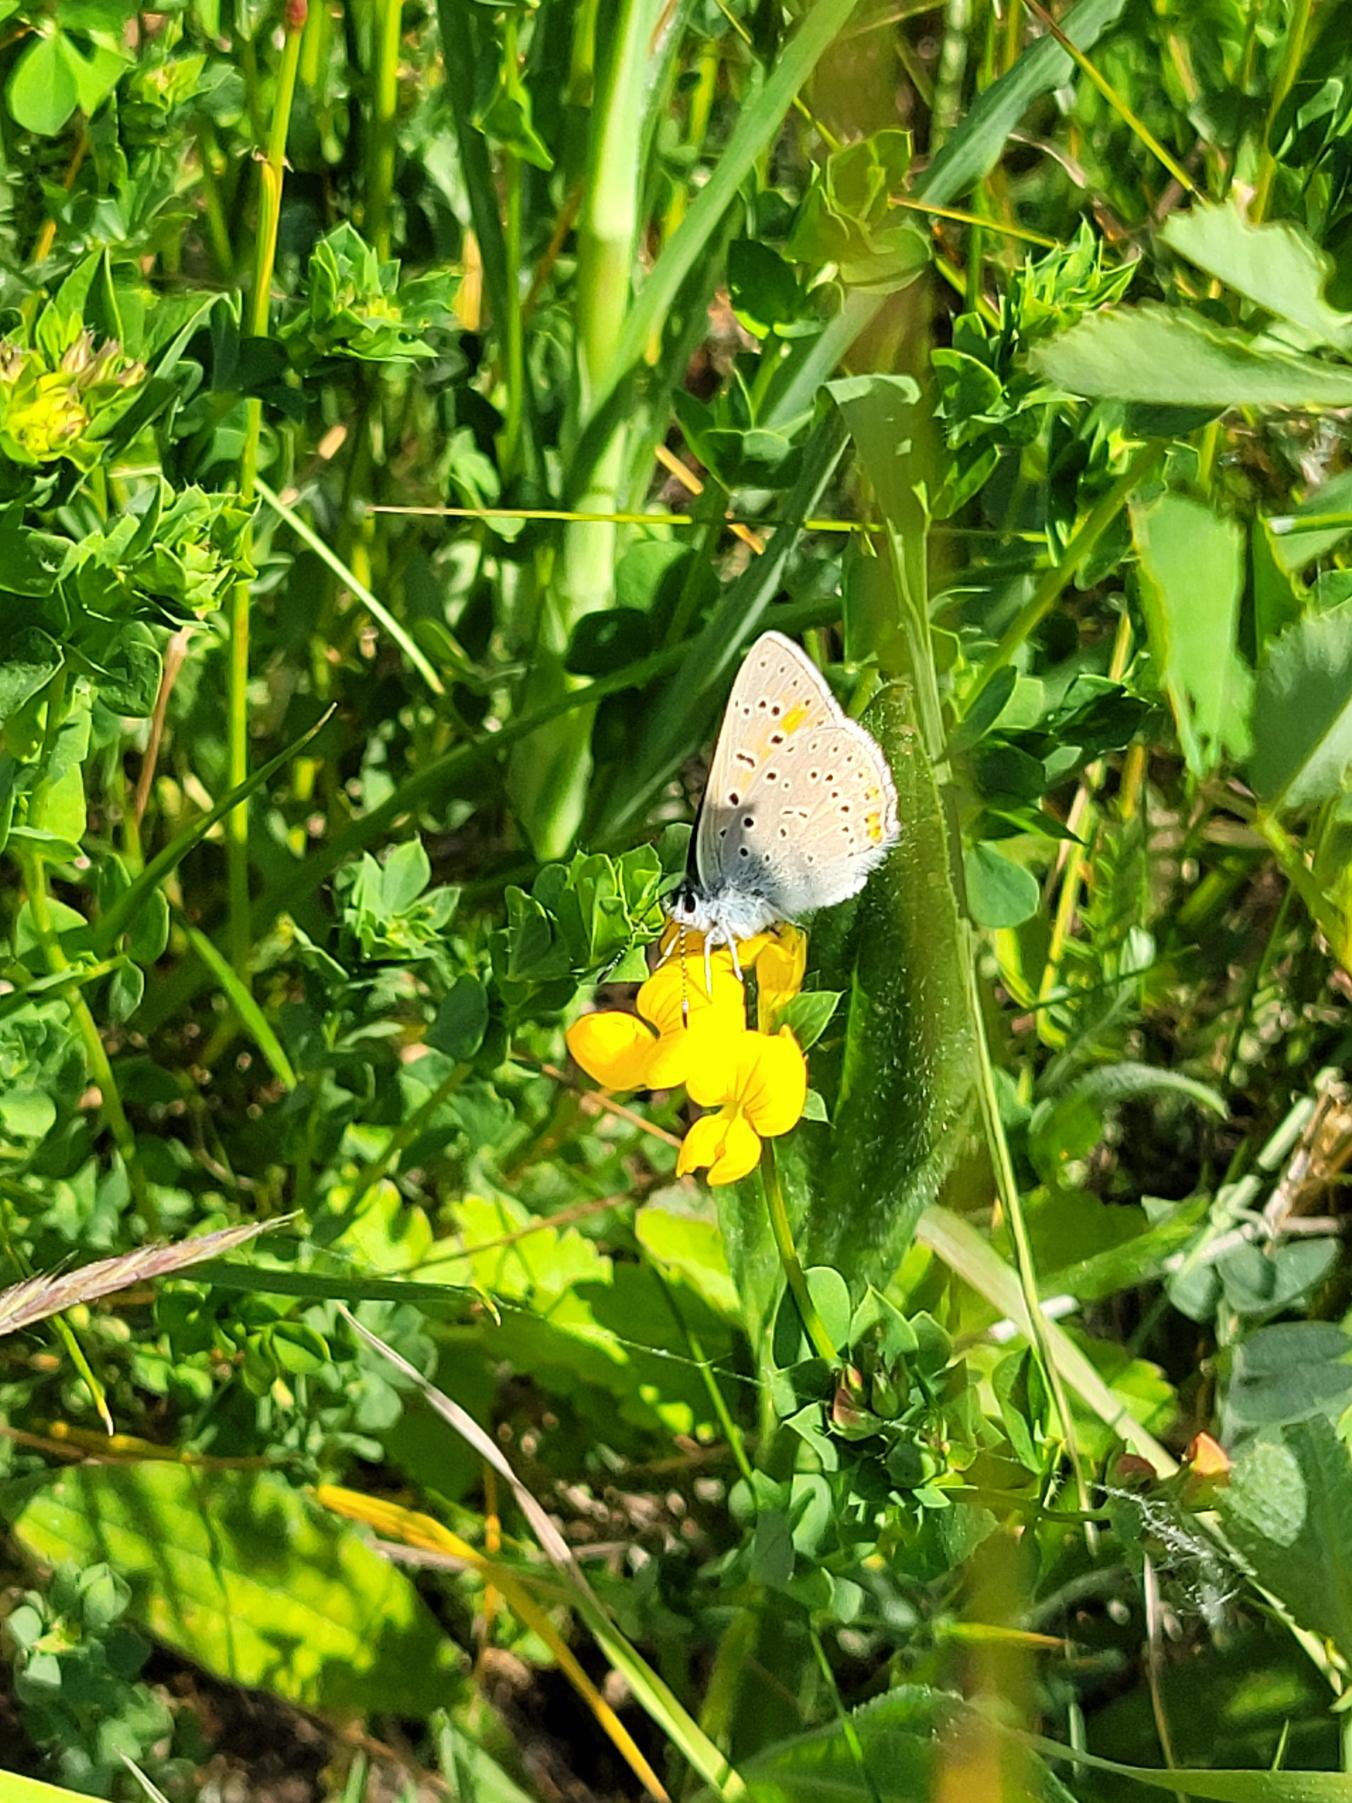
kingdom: Animalia
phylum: Arthropoda
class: Insecta
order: Lepidoptera
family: Lycaenidae
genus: Palaeochrysophanus
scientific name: Palaeochrysophanus hippothoe
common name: Violetrandet ildfugl
